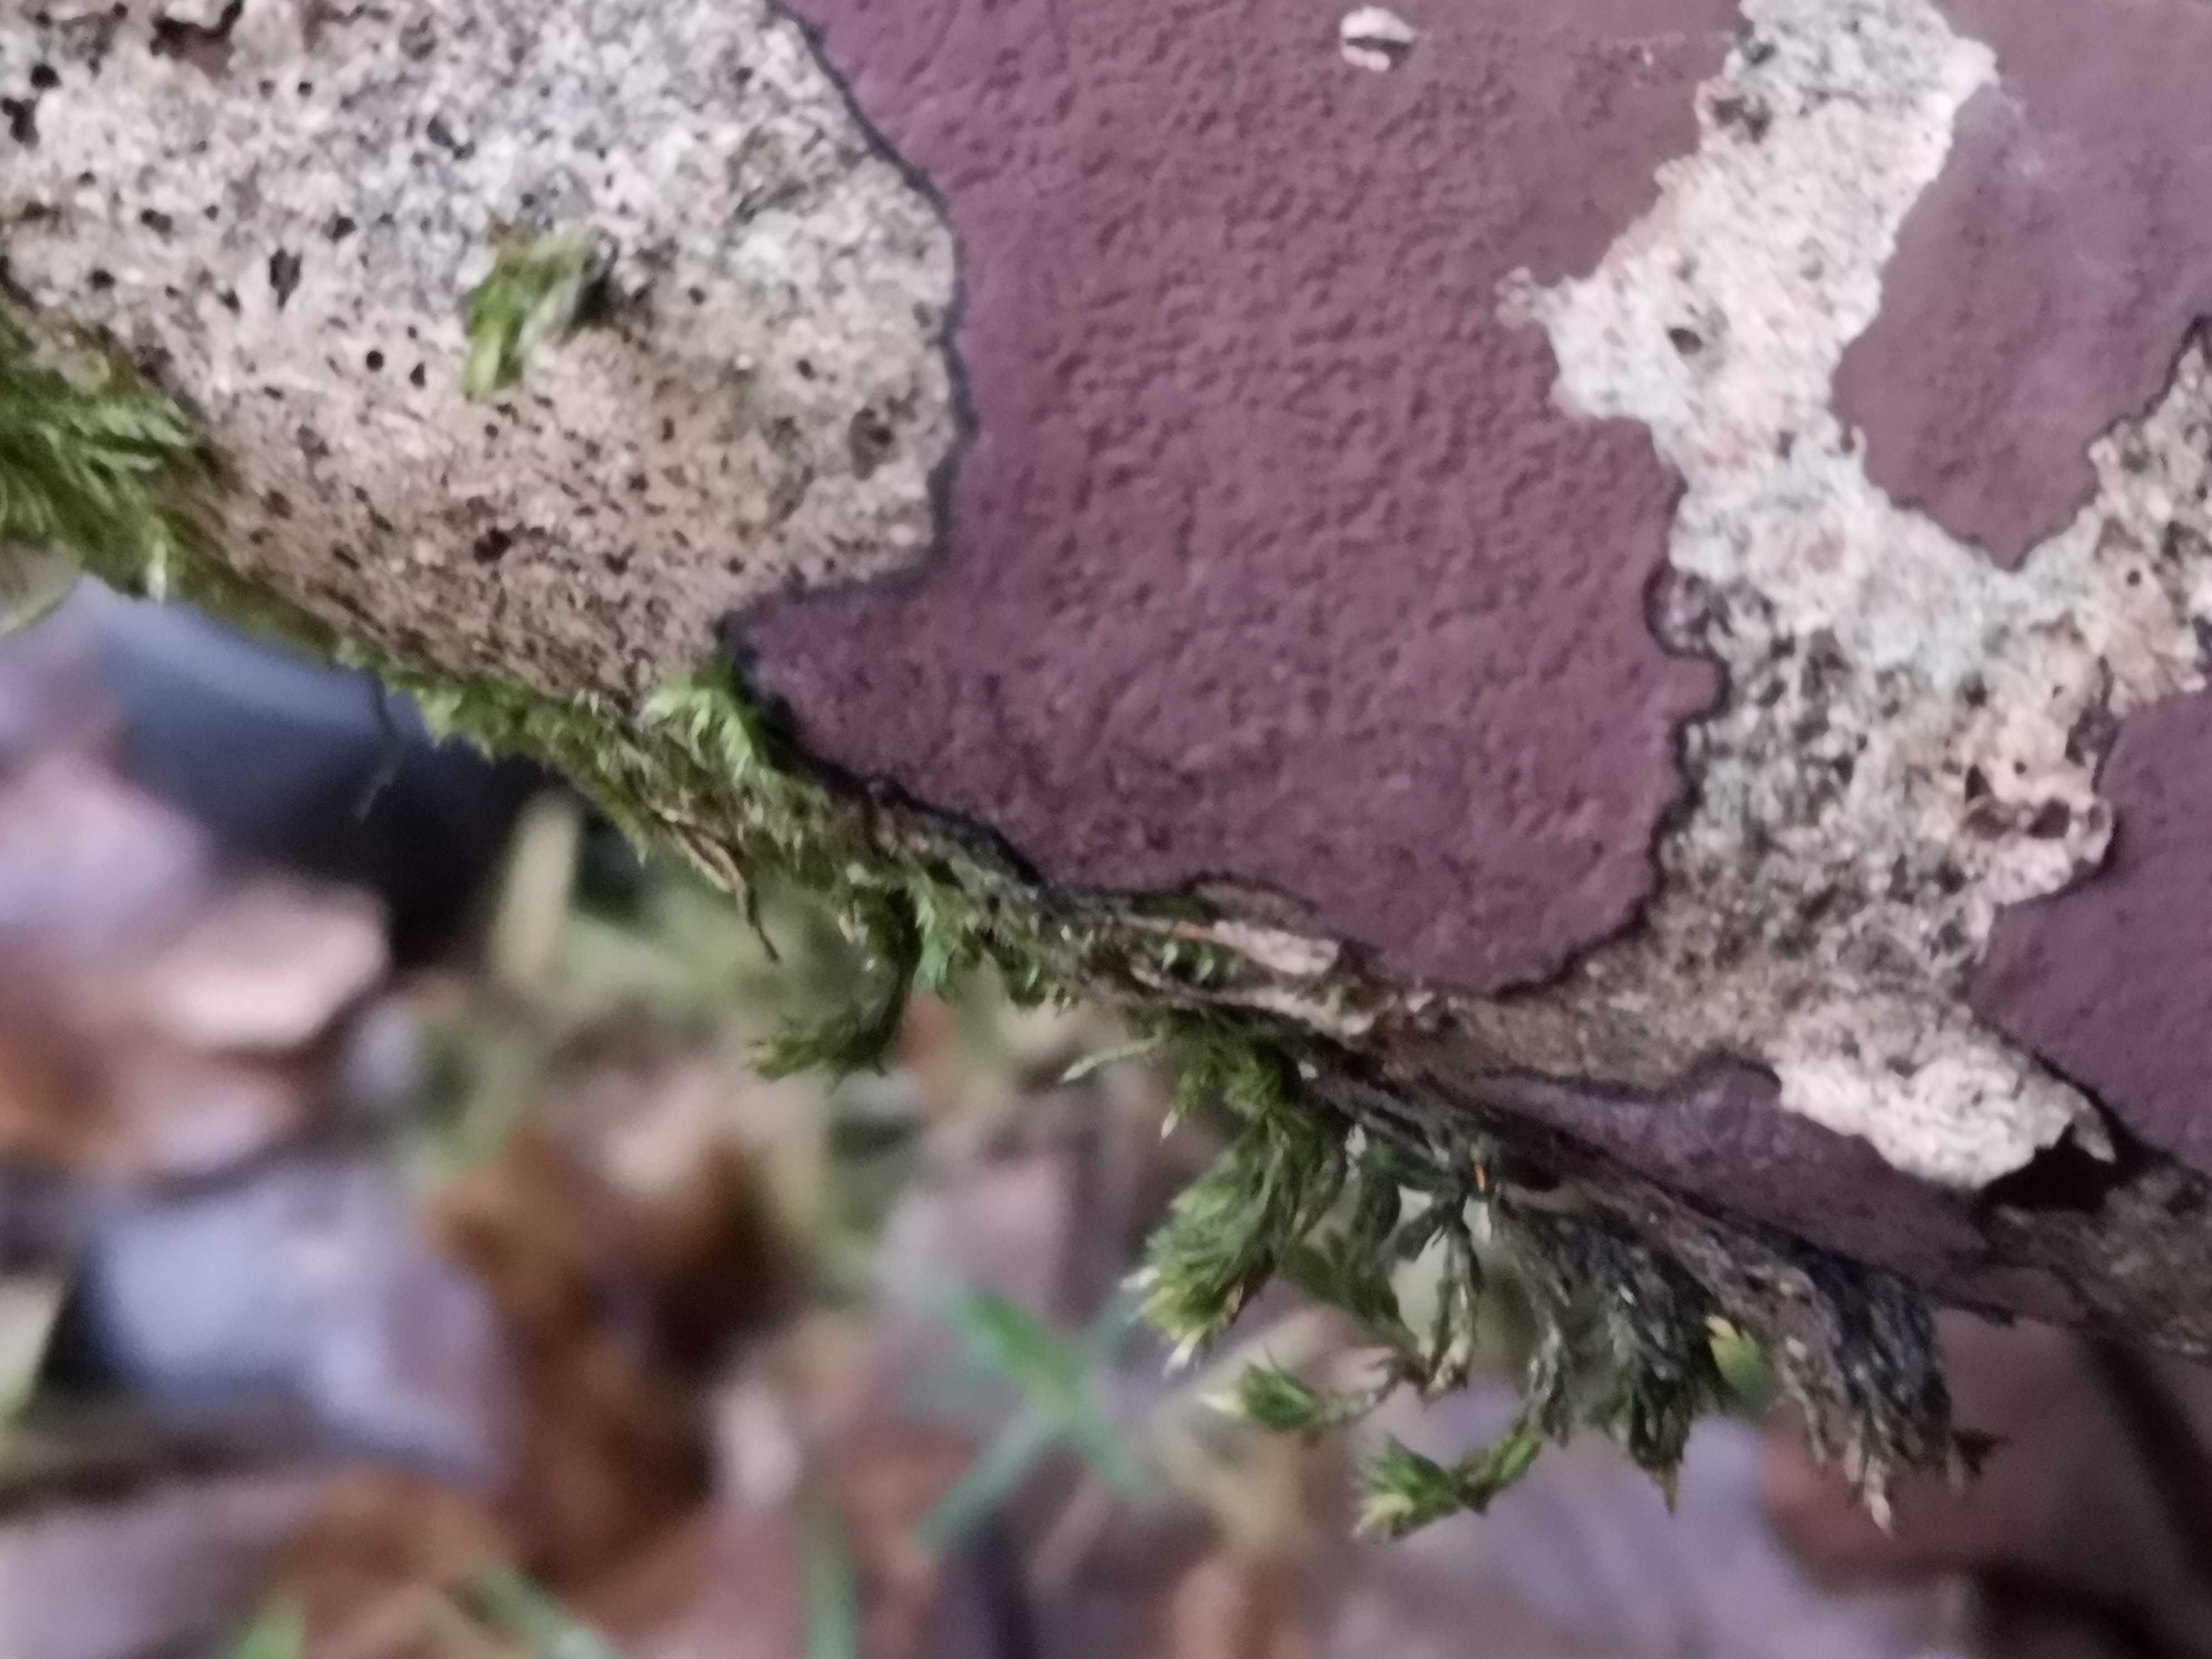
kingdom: Fungi
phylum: Ascomycota
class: Sordariomycetes
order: Xylariales
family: Hypoxylaceae
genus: Hypoxylon
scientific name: Hypoxylon petriniae
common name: nedsænket kulbær
